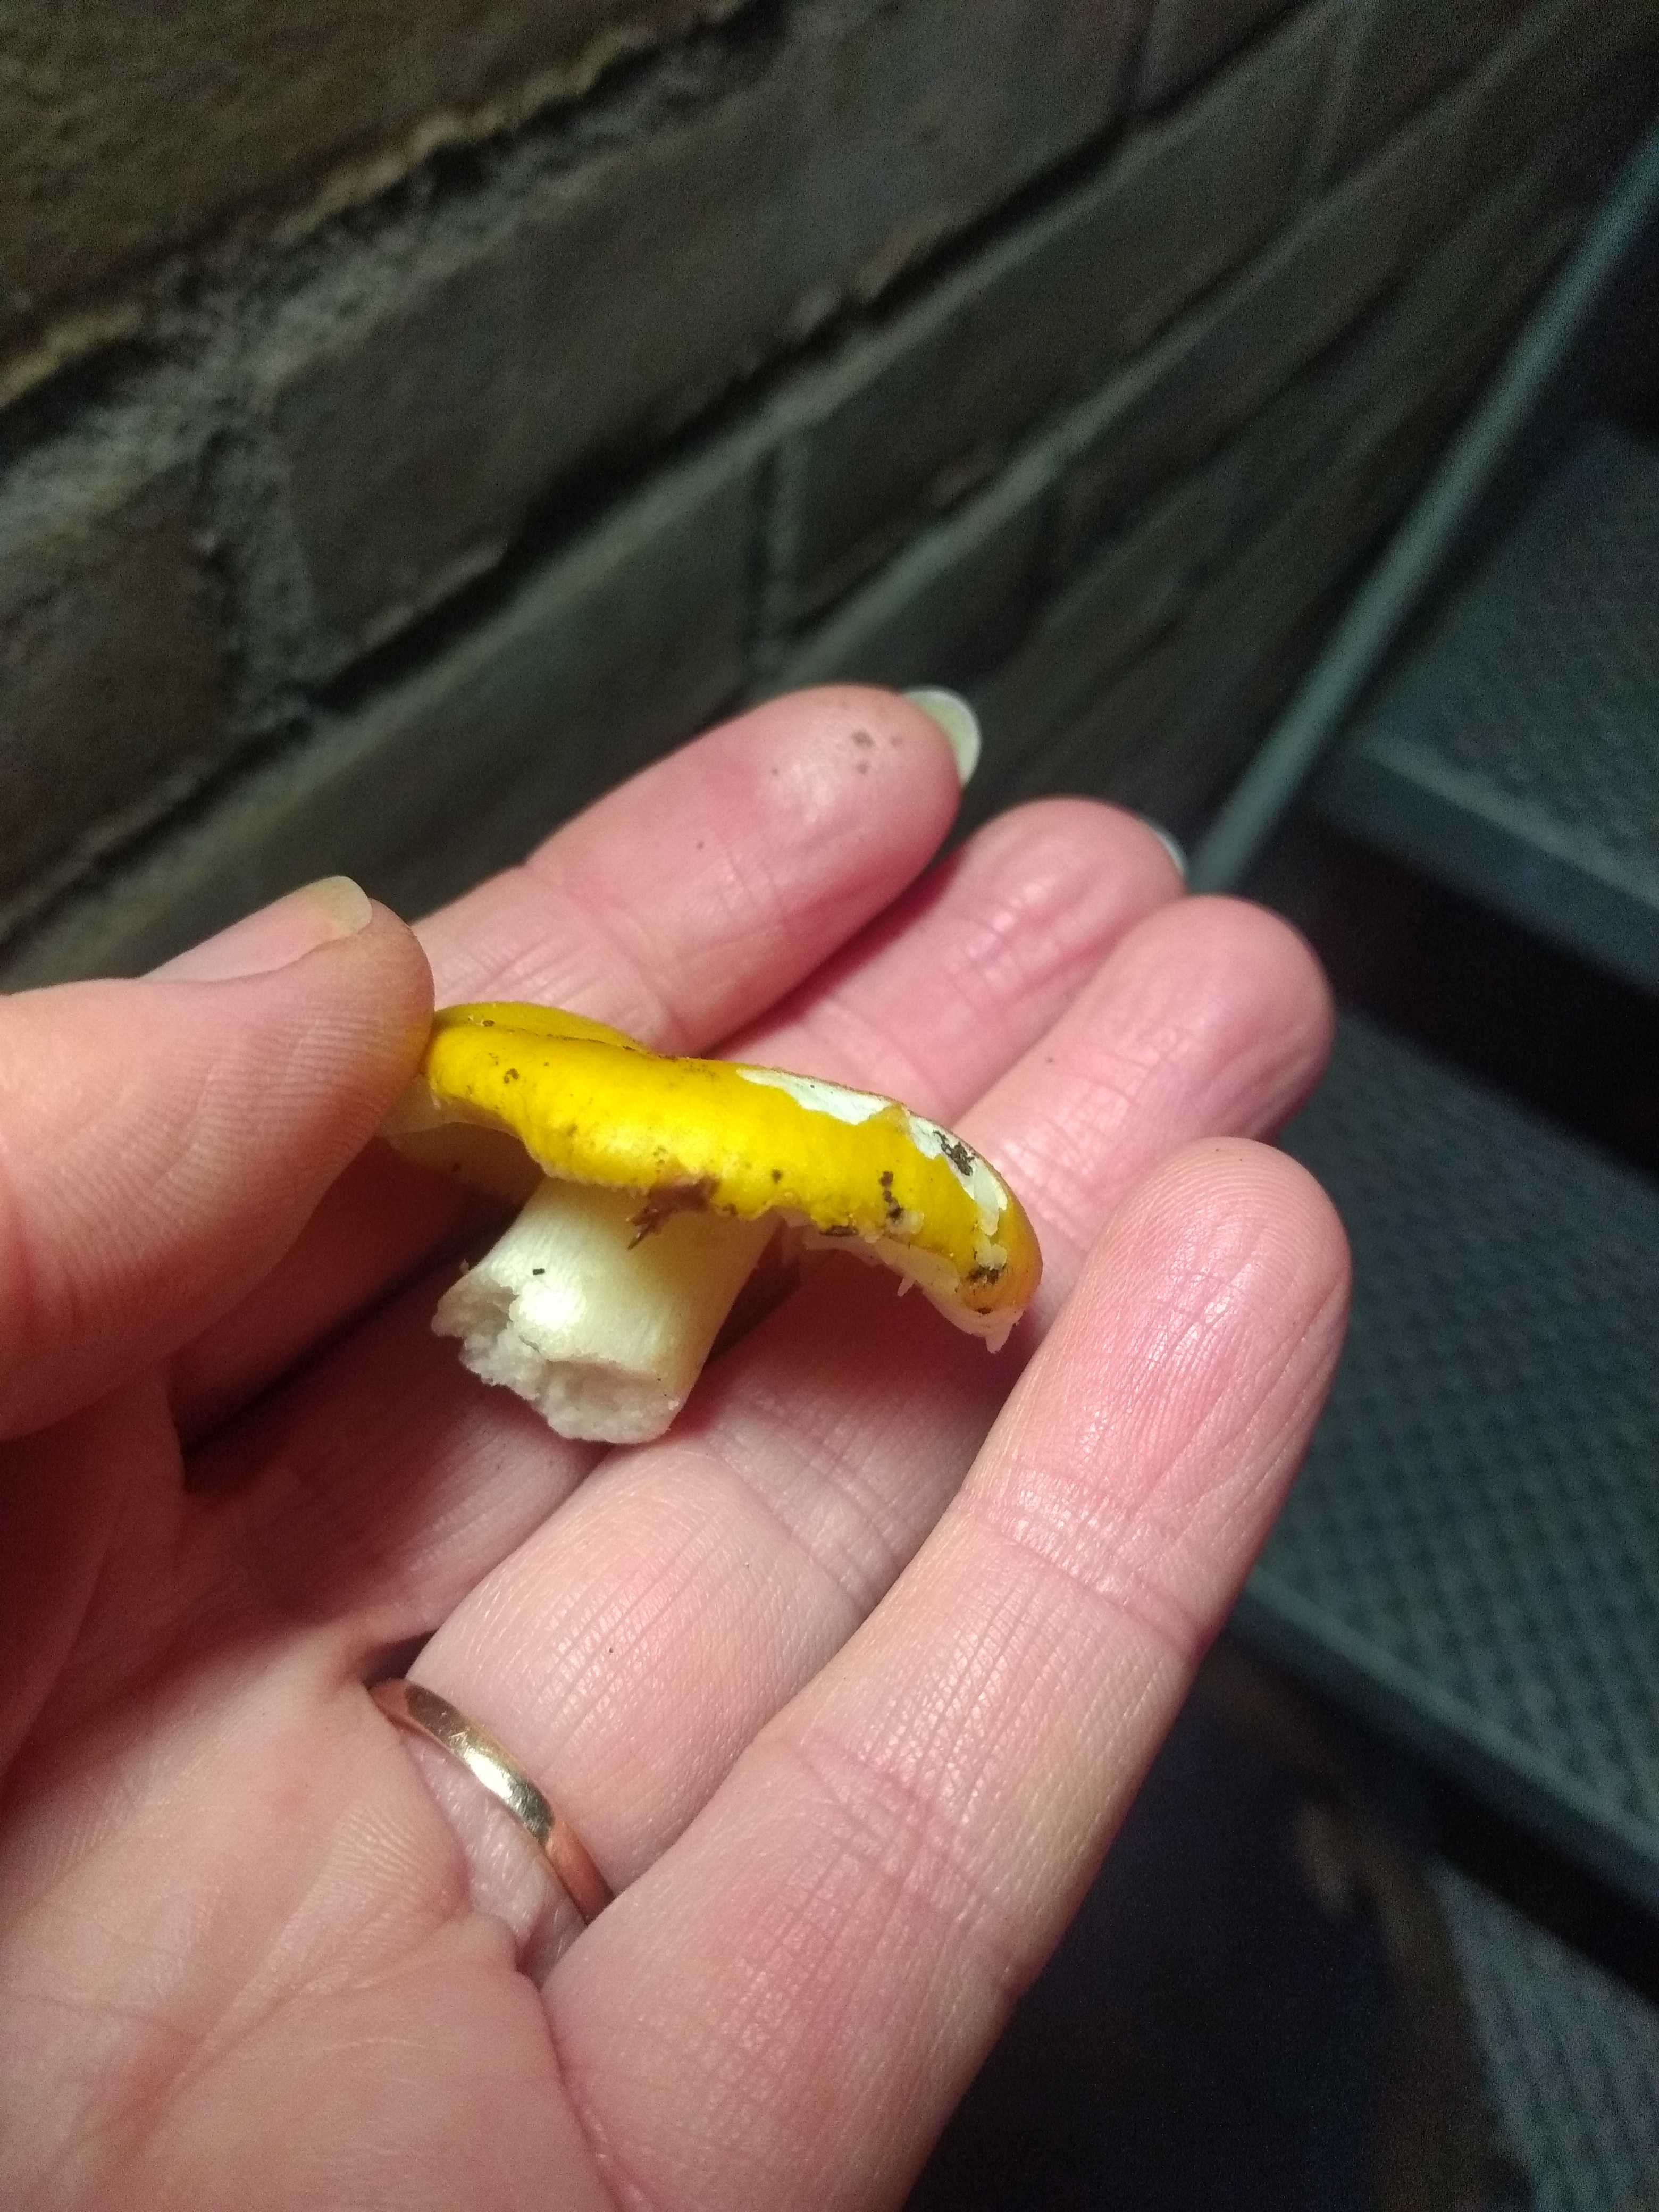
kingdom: Fungi
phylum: Basidiomycota
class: Agaricomycetes
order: Russulales
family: Russulaceae
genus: Russula
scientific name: Russula fellea
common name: galde-skørhat
